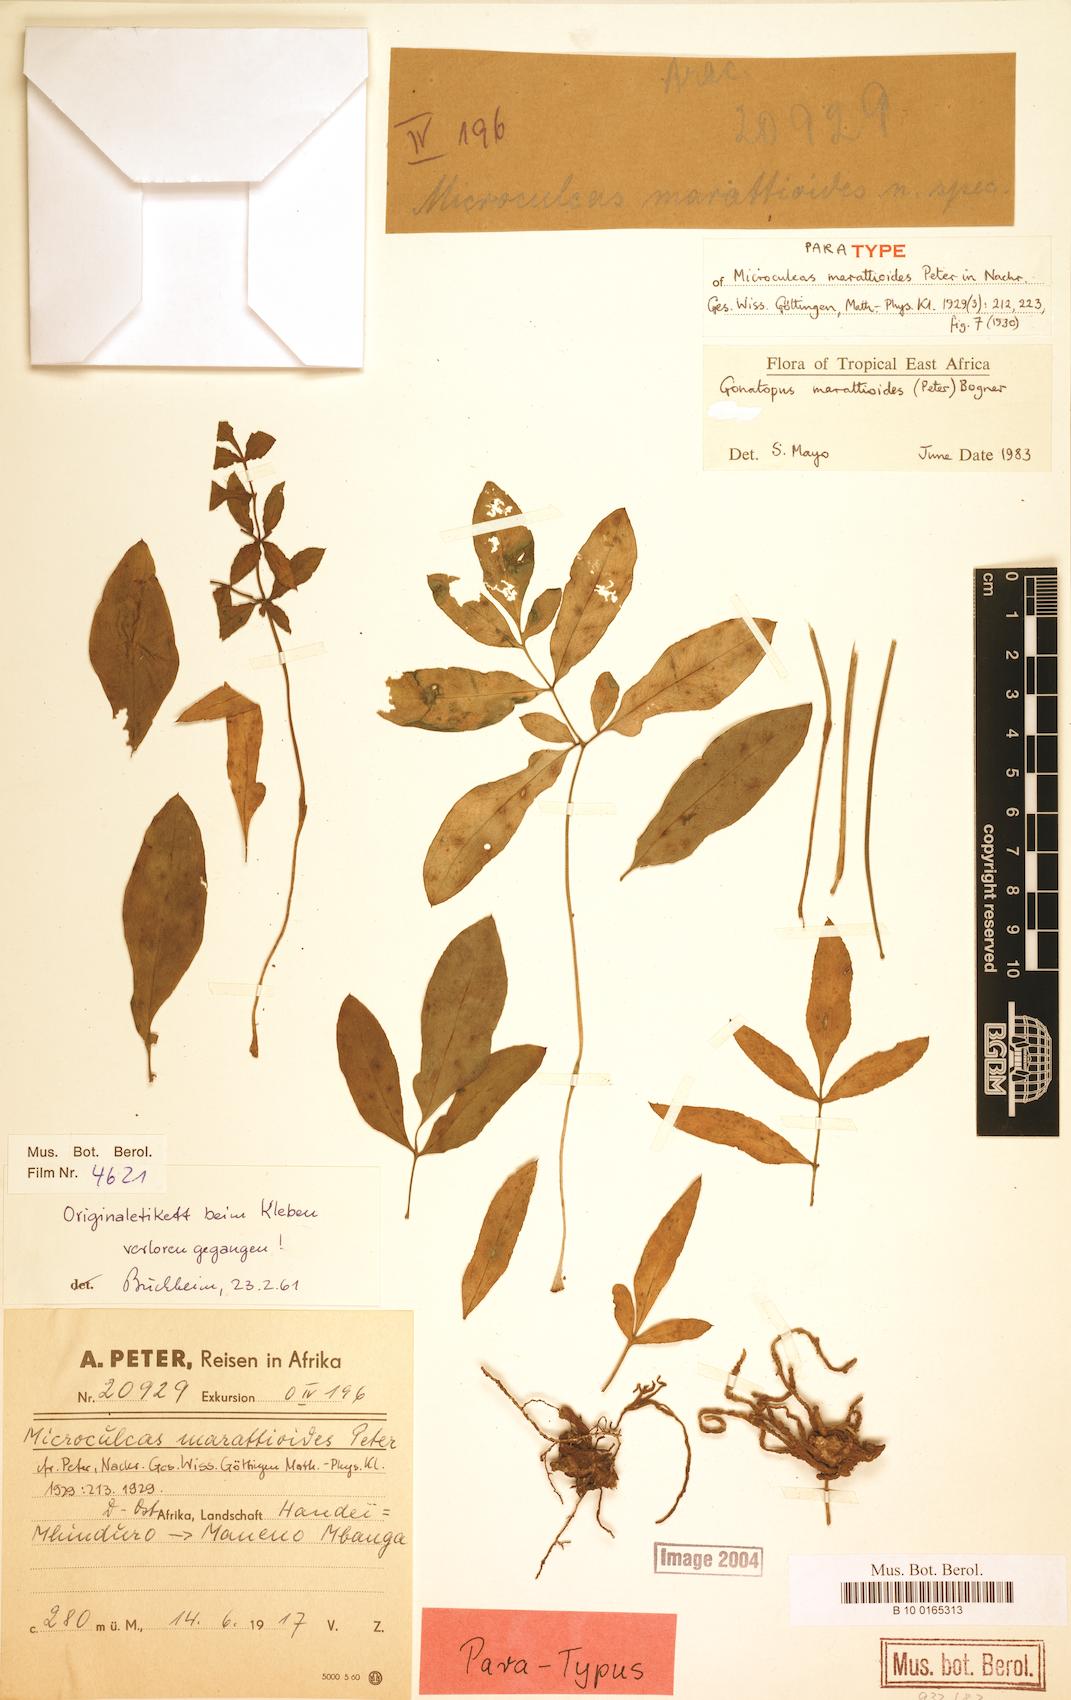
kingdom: Plantae
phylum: Tracheophyta
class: Liliopsida
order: Alismatales
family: Araceae
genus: Gonatopus
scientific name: Gonatopus marattioides
